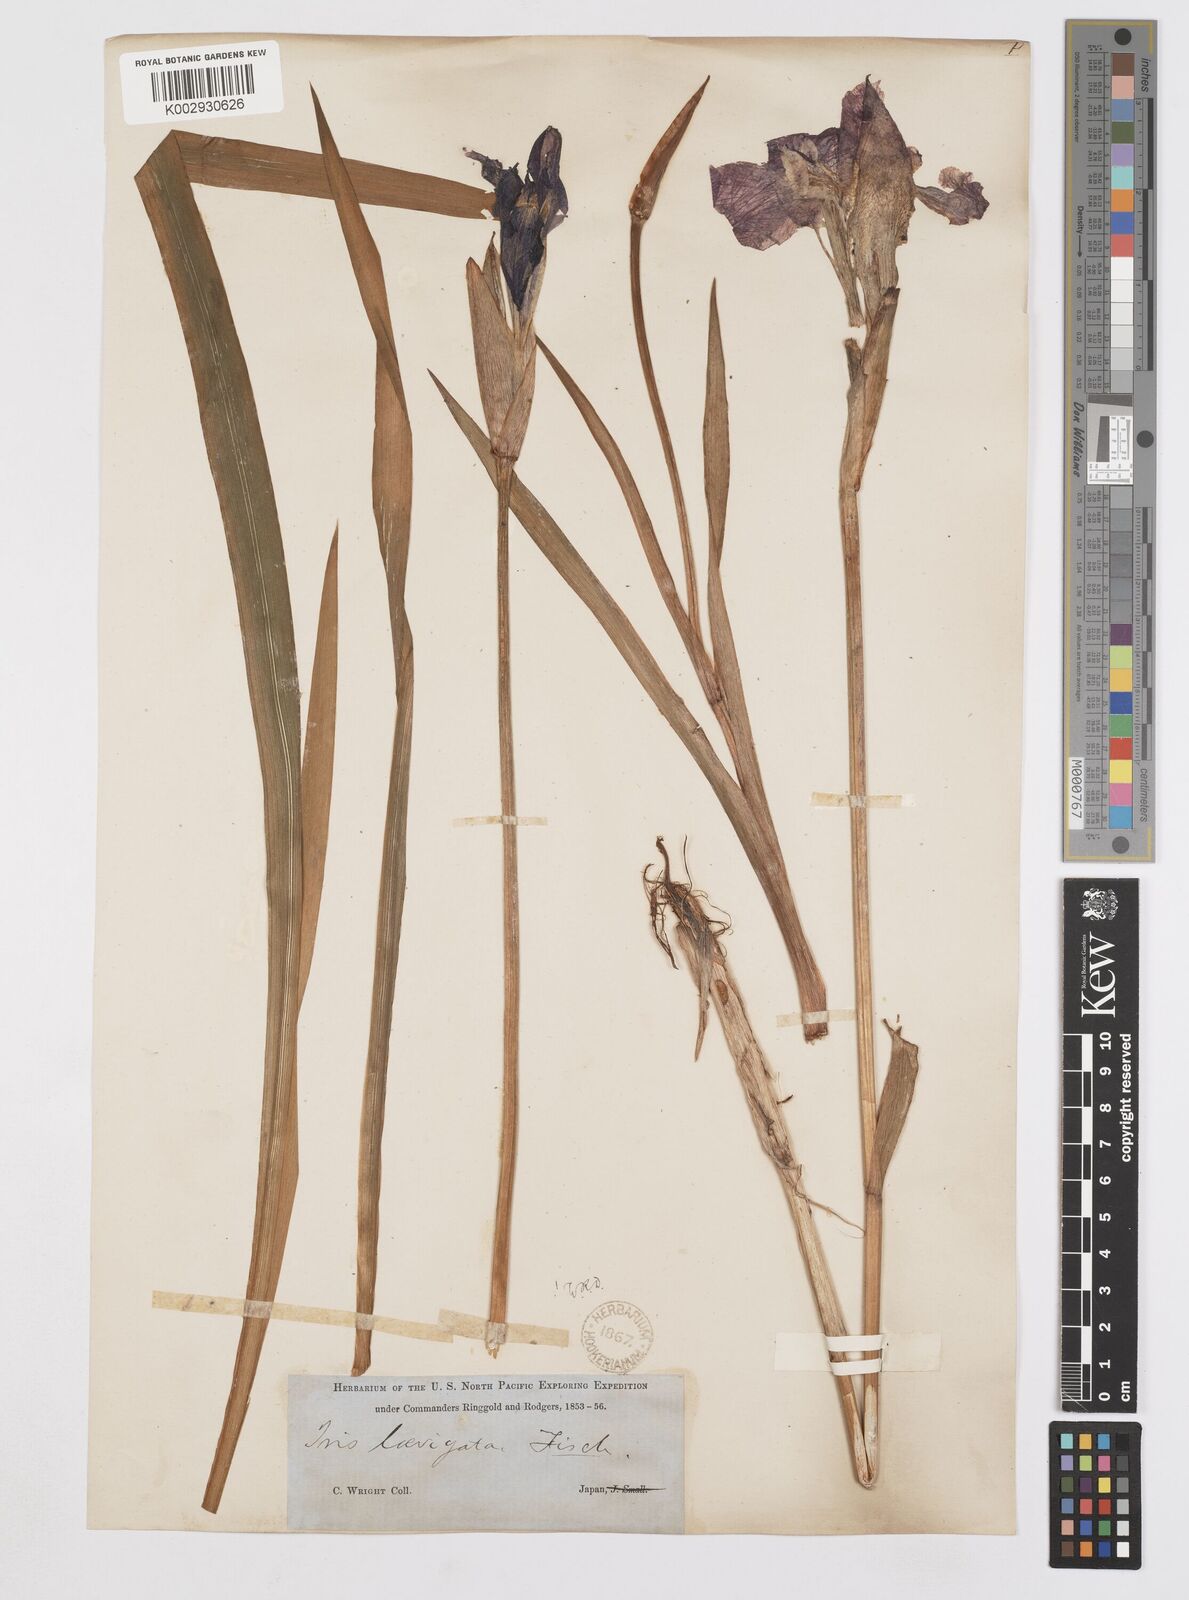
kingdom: Plantae
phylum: Tracheophyta
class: Liliopsida
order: Asparagales
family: Iridaceae
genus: Iris
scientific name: Iris laevigata
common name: Japanese iris
